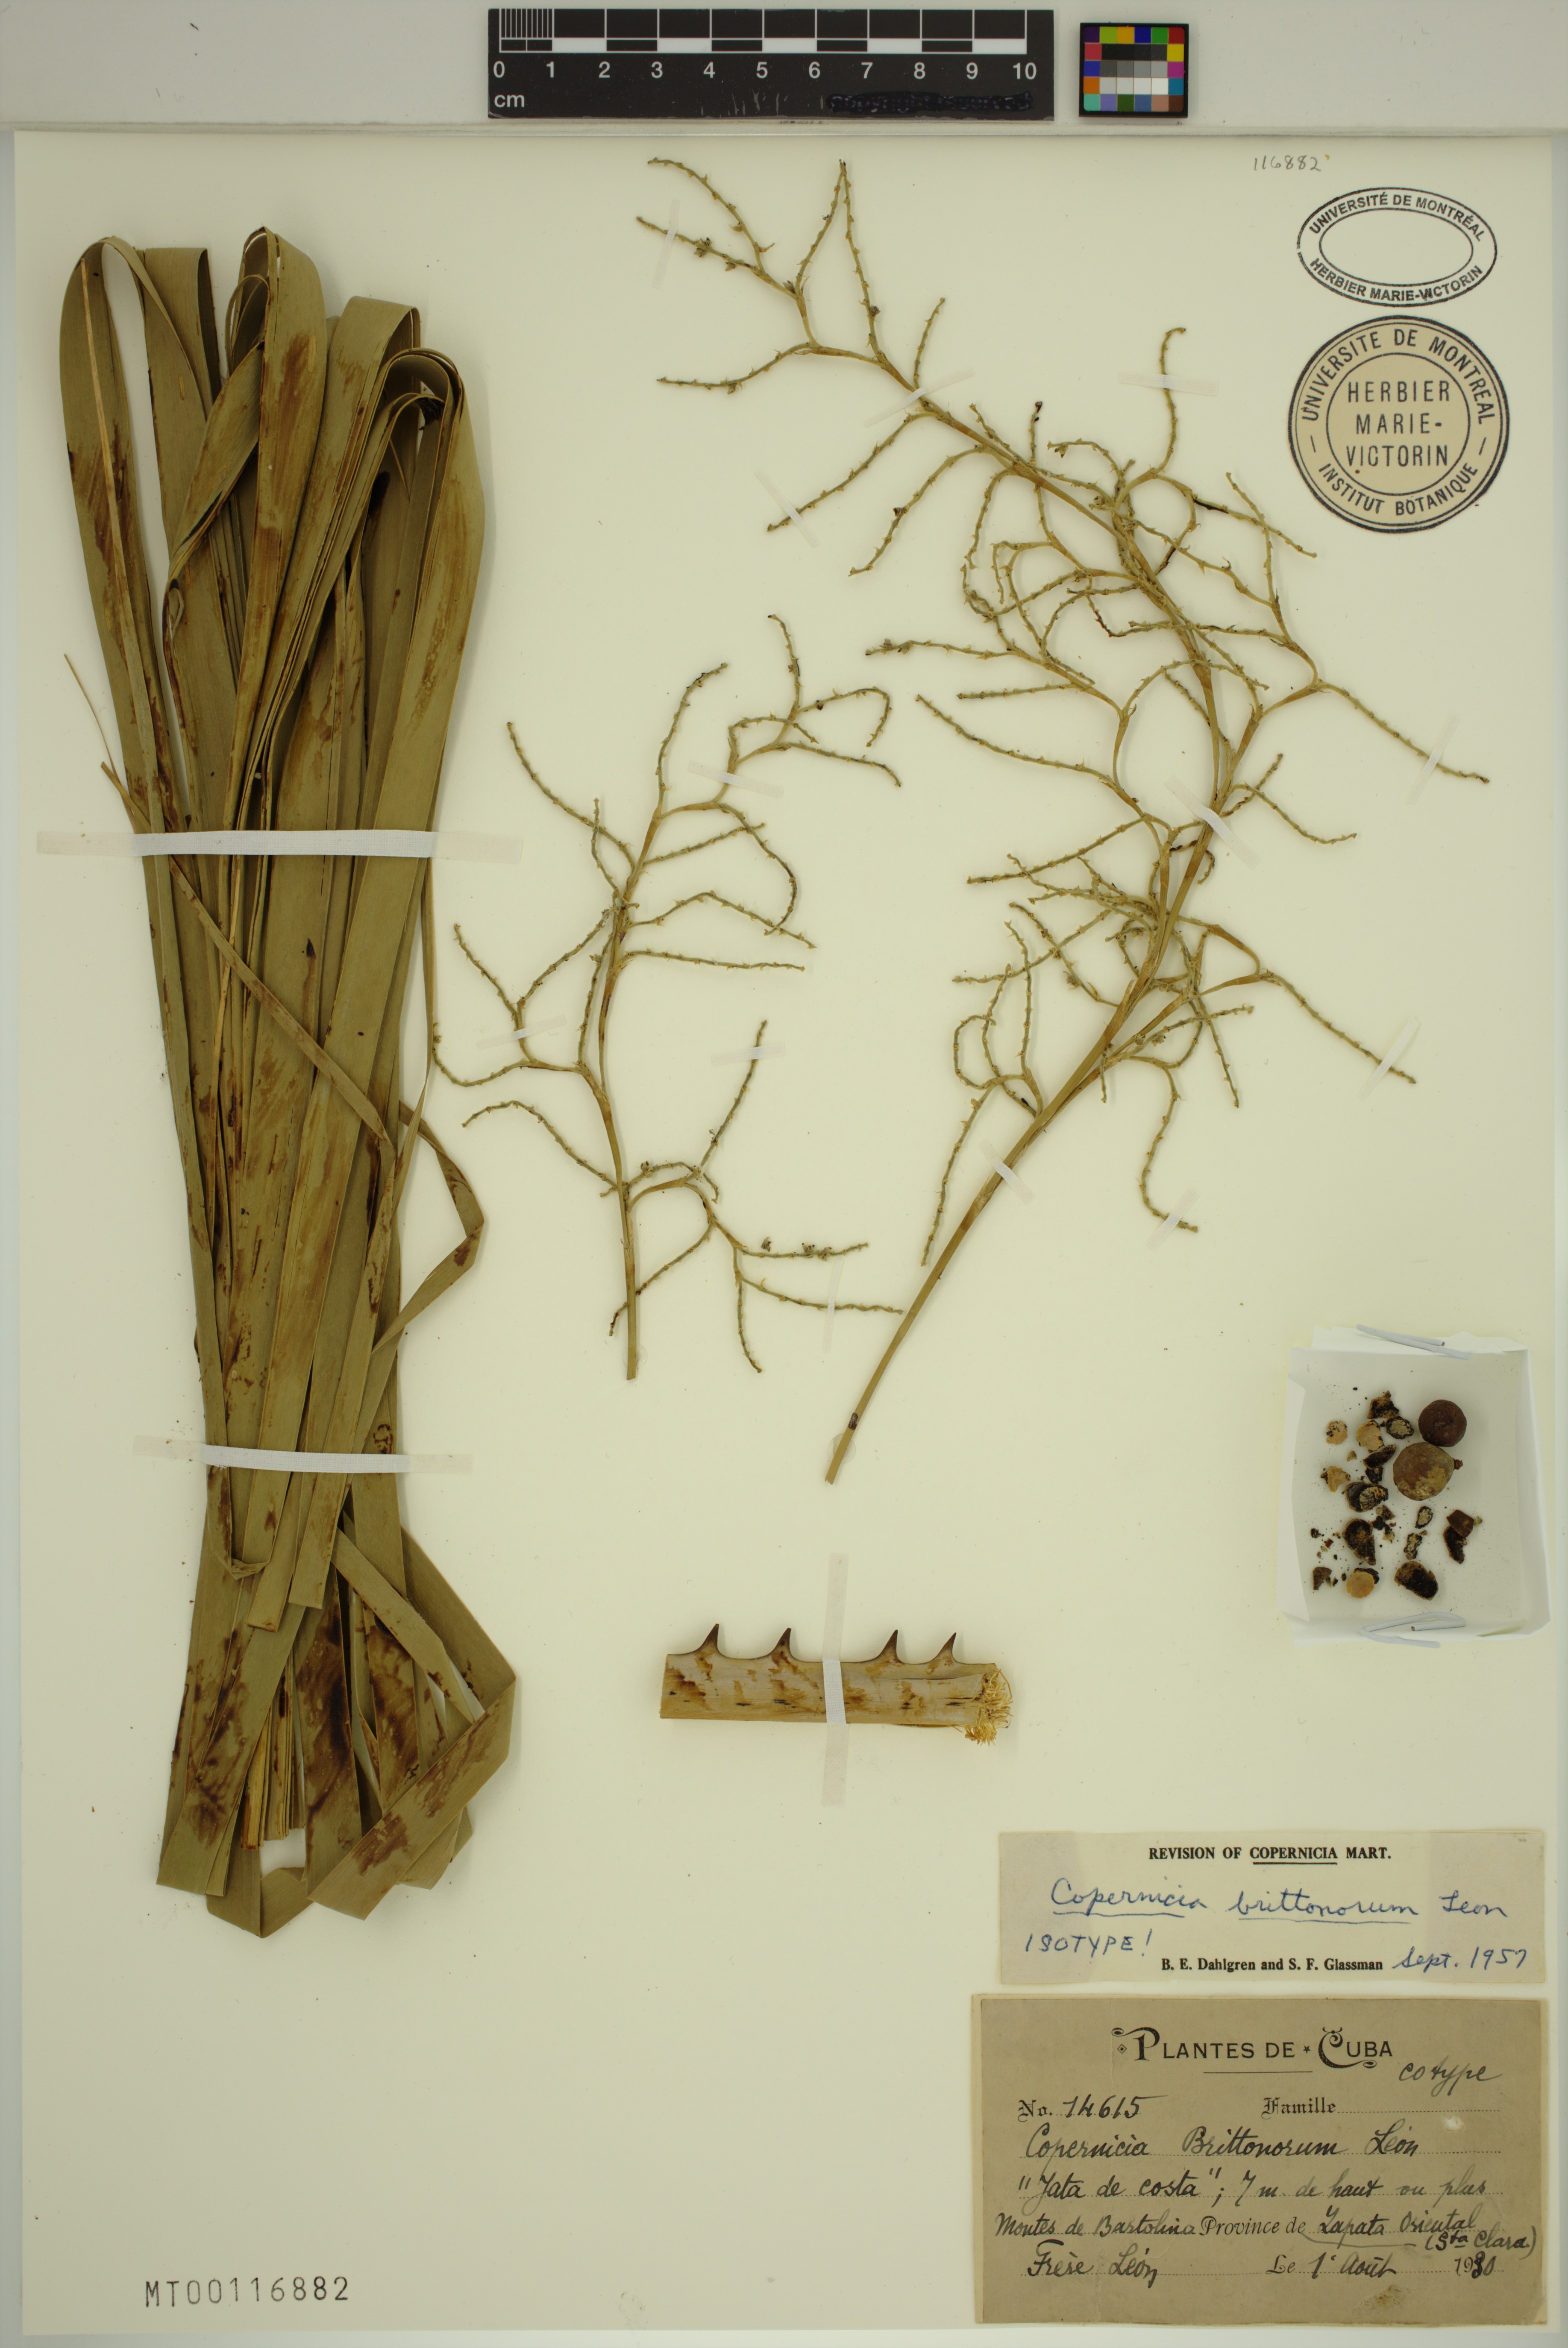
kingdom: Plantae
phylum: Tracheophyta
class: Liliopsida
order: Arecales
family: Arecaceae
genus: Copernicia
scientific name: Copernicia brittonorum
